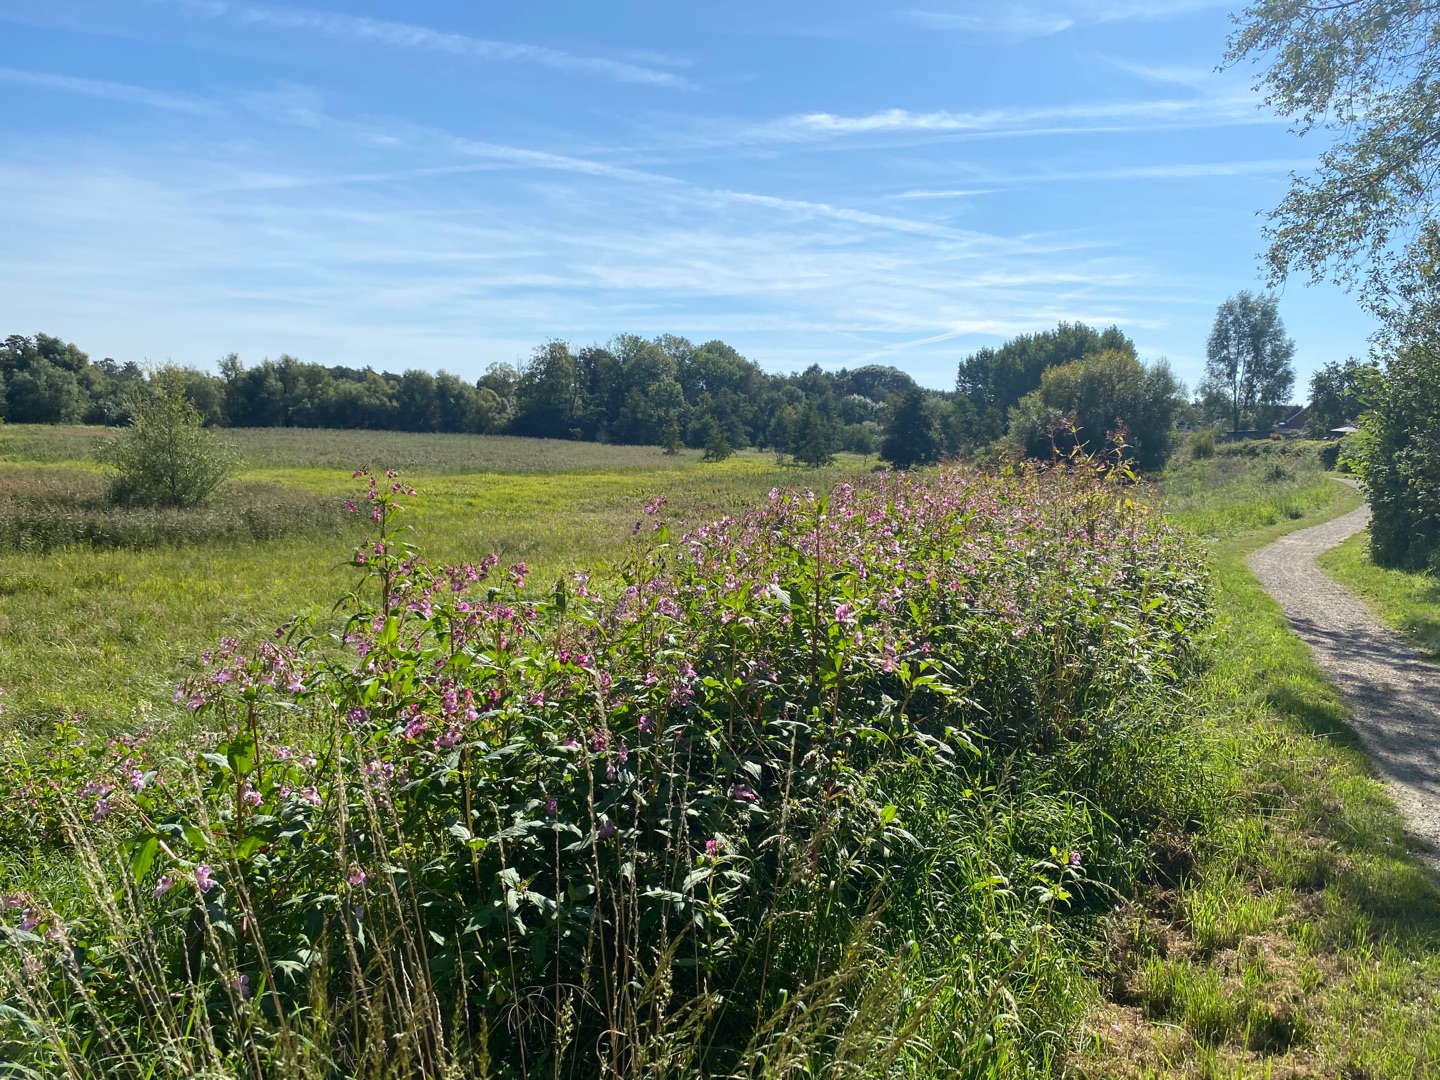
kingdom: Plantae
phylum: Tracheophyta
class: Magnoliopsida
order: Ericales
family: Balsaminaceae
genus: Impatiens
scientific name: Impatiens glandulifera
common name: Kæmpe-balsamin
